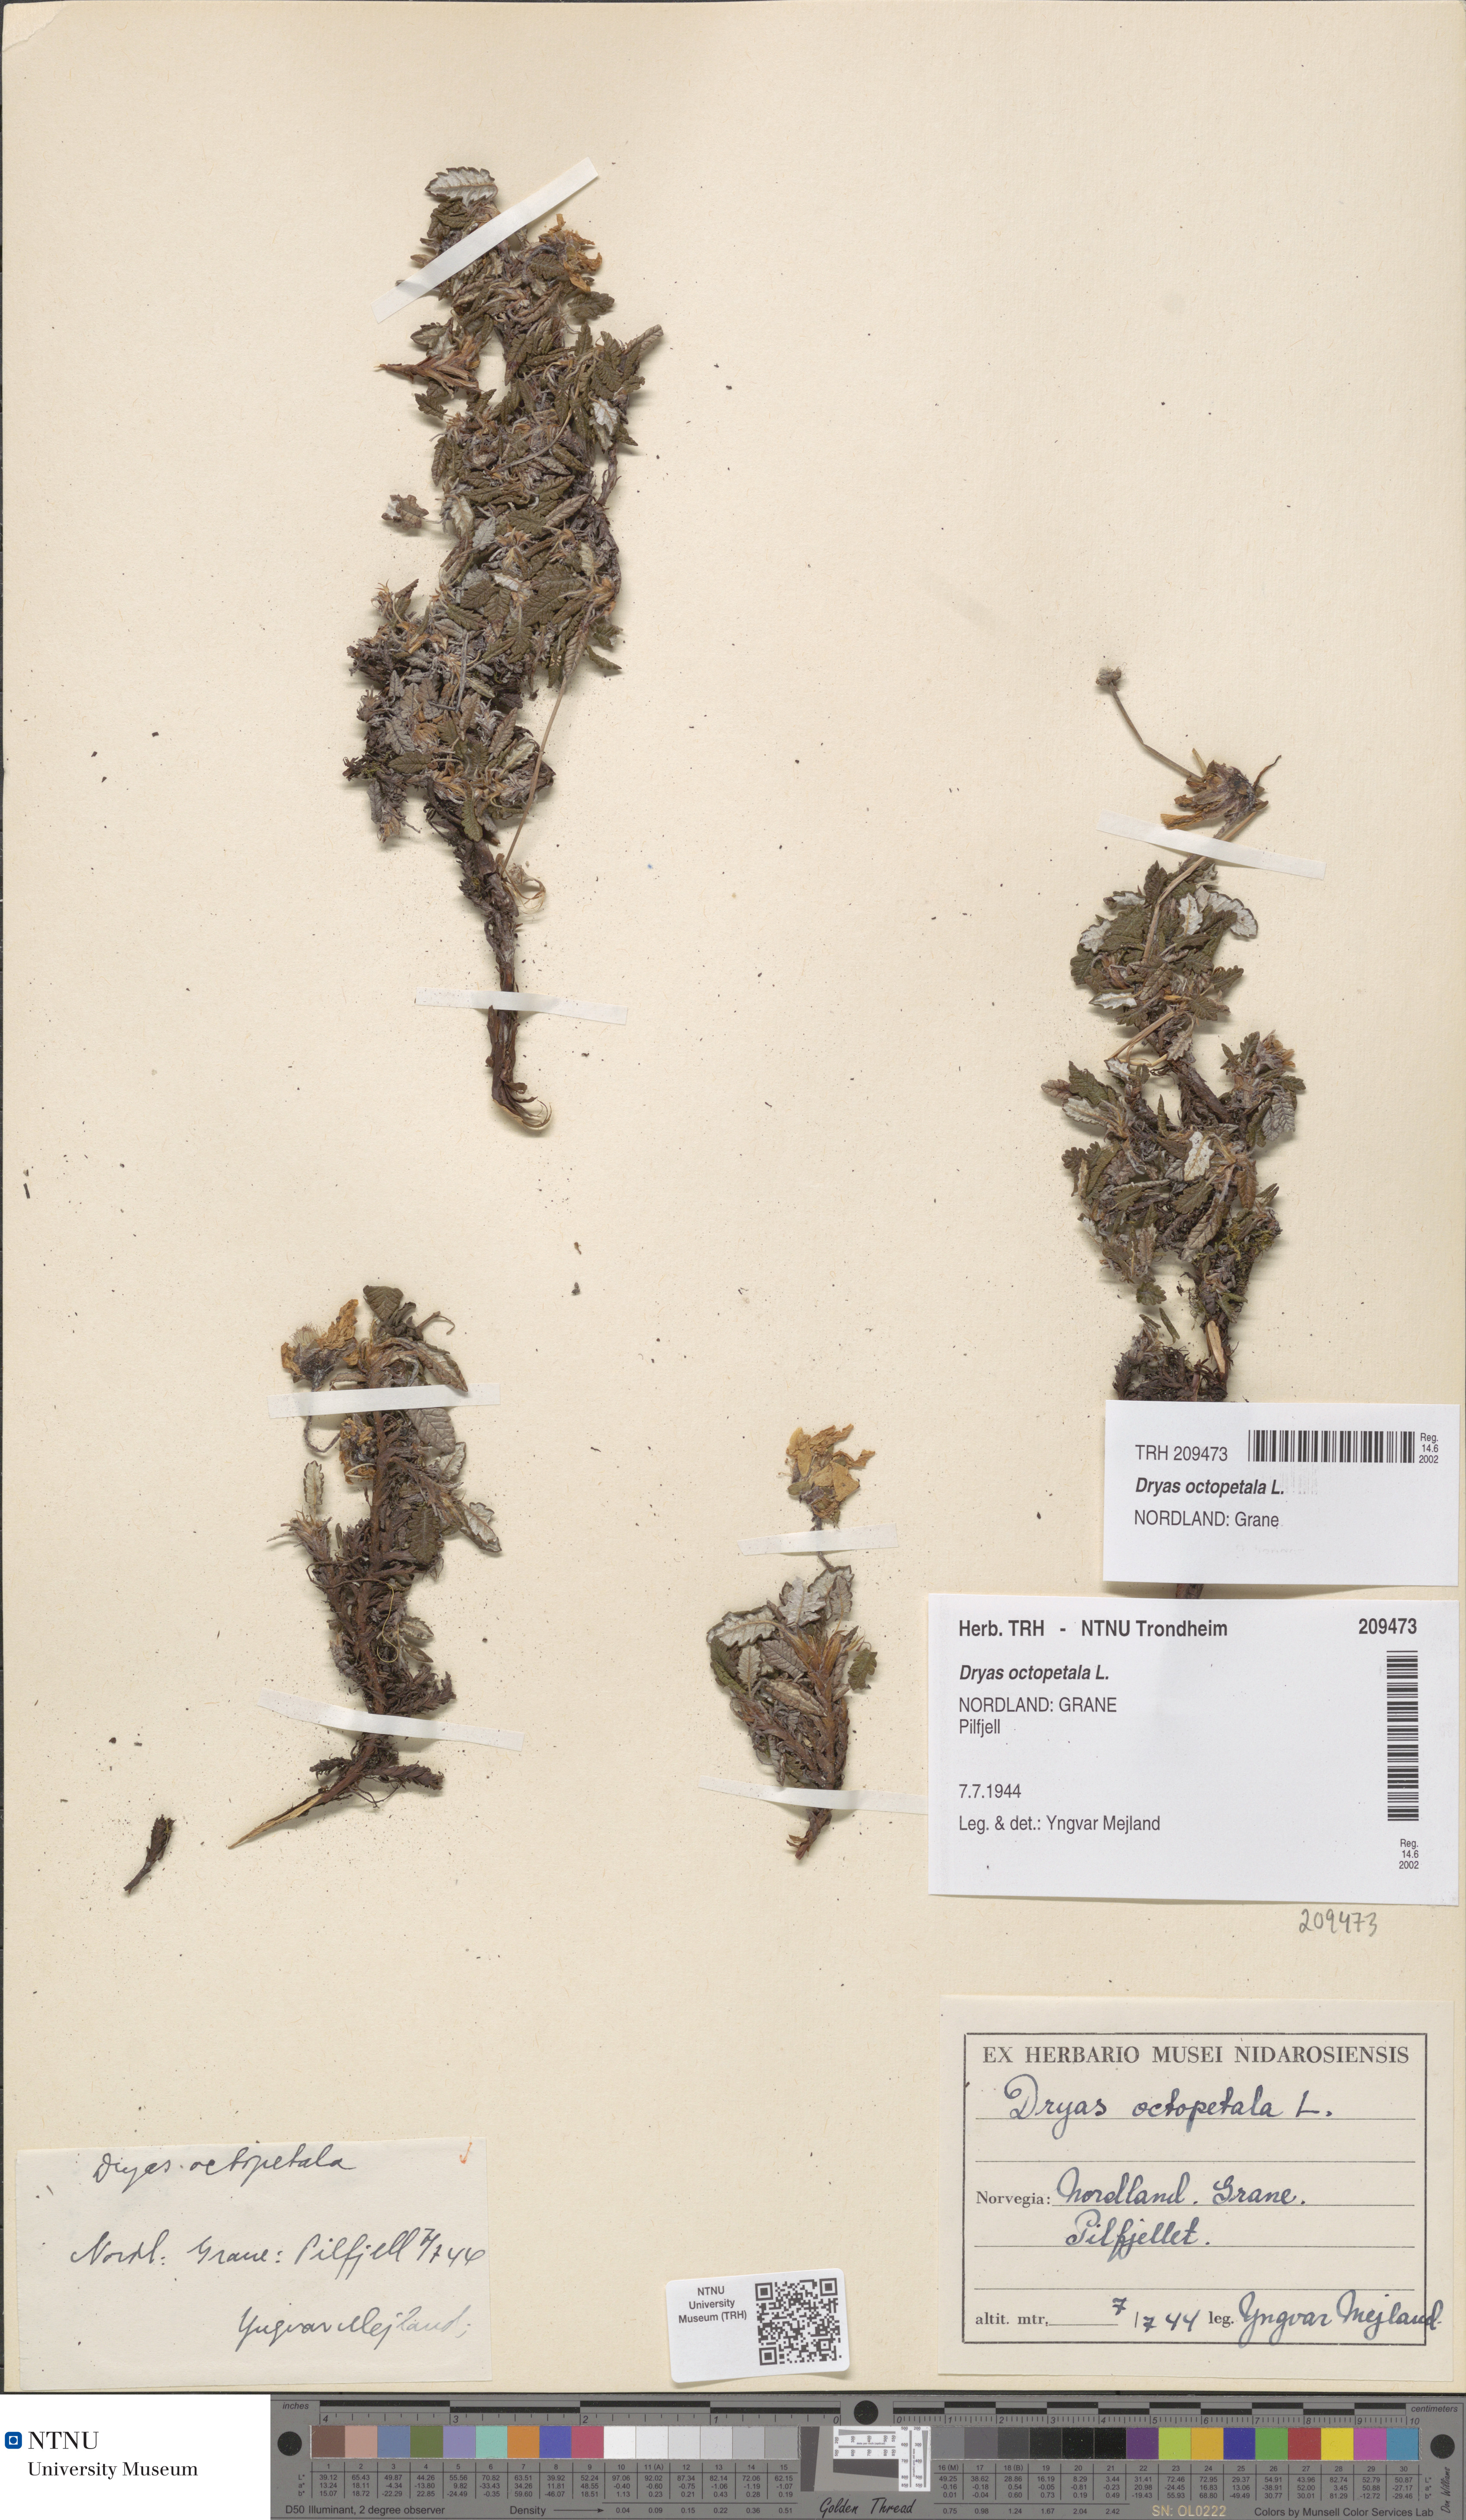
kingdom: Plantae
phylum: Tracheophyta
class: Magnoliopsida
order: Rosales
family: Rosaceae
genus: Dryas
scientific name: Dryas octopetala
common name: Eight-petal mountain-avens
